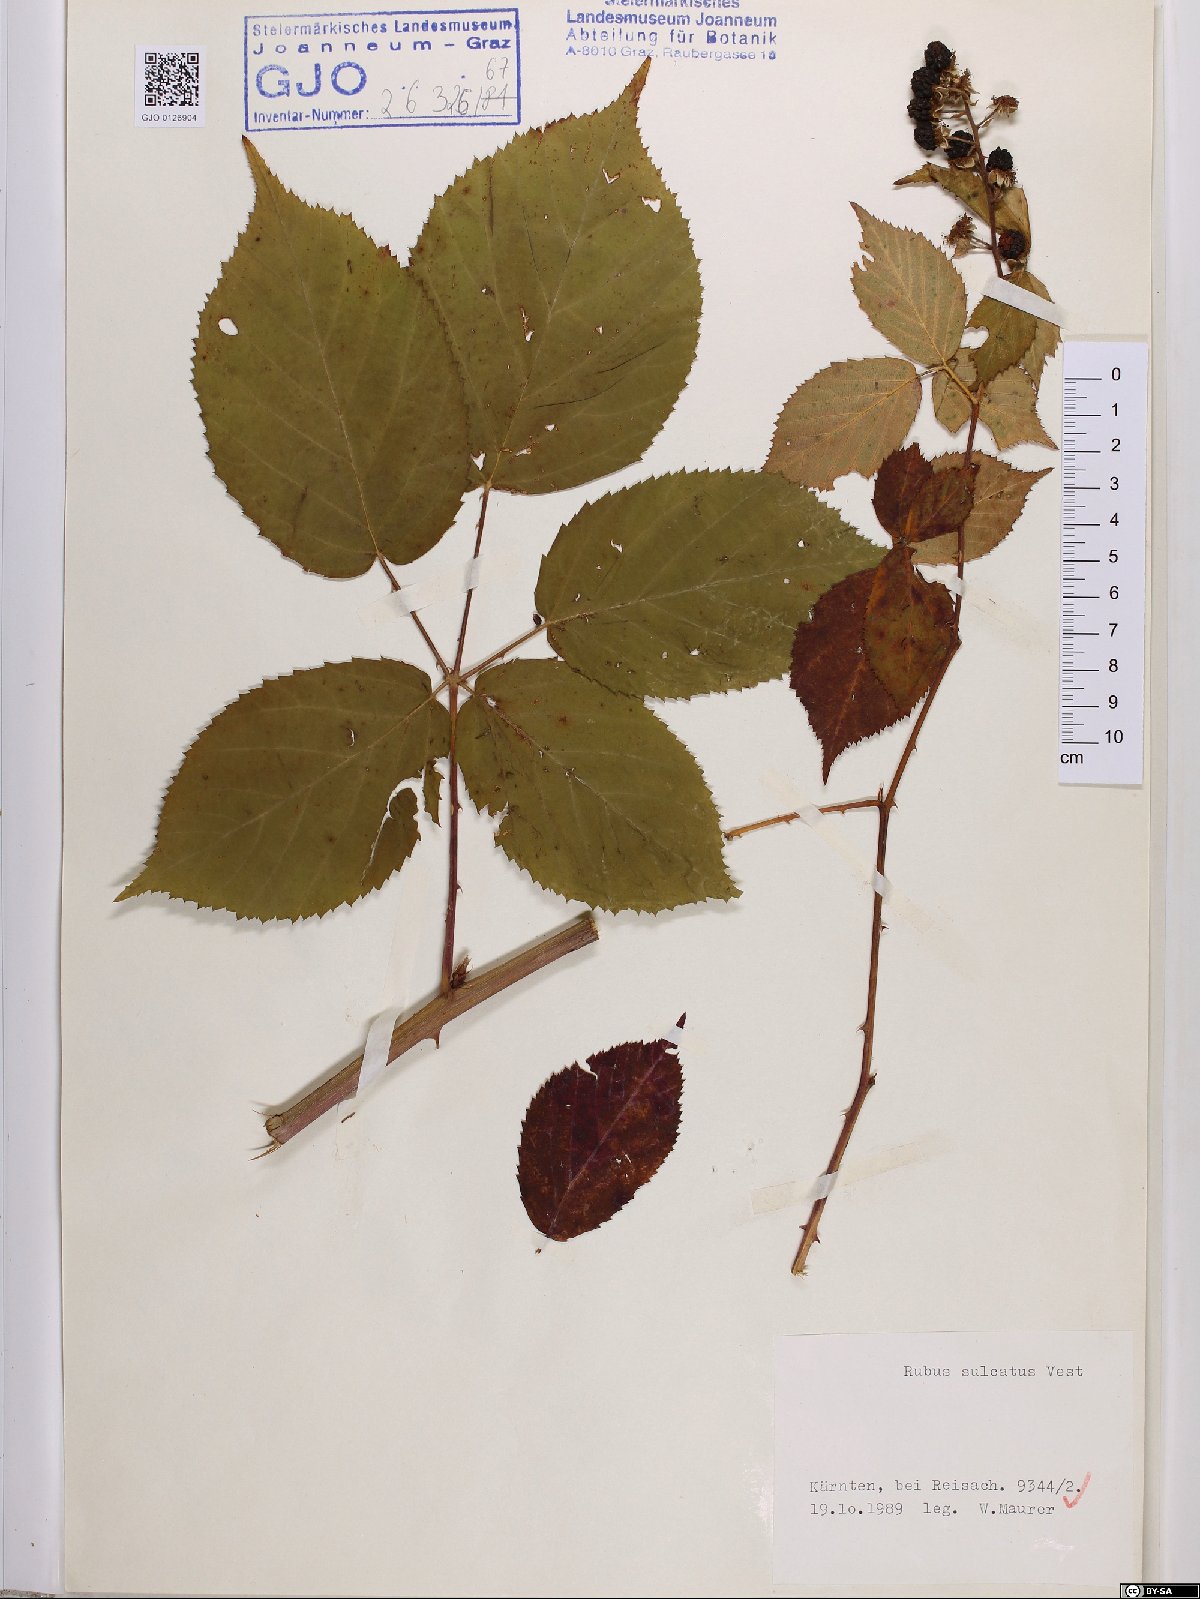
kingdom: Plantae
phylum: Tracheophyta
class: Magnoliopsida
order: Rosales
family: Rosaceae
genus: Rubus
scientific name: Rubus sulcatus
